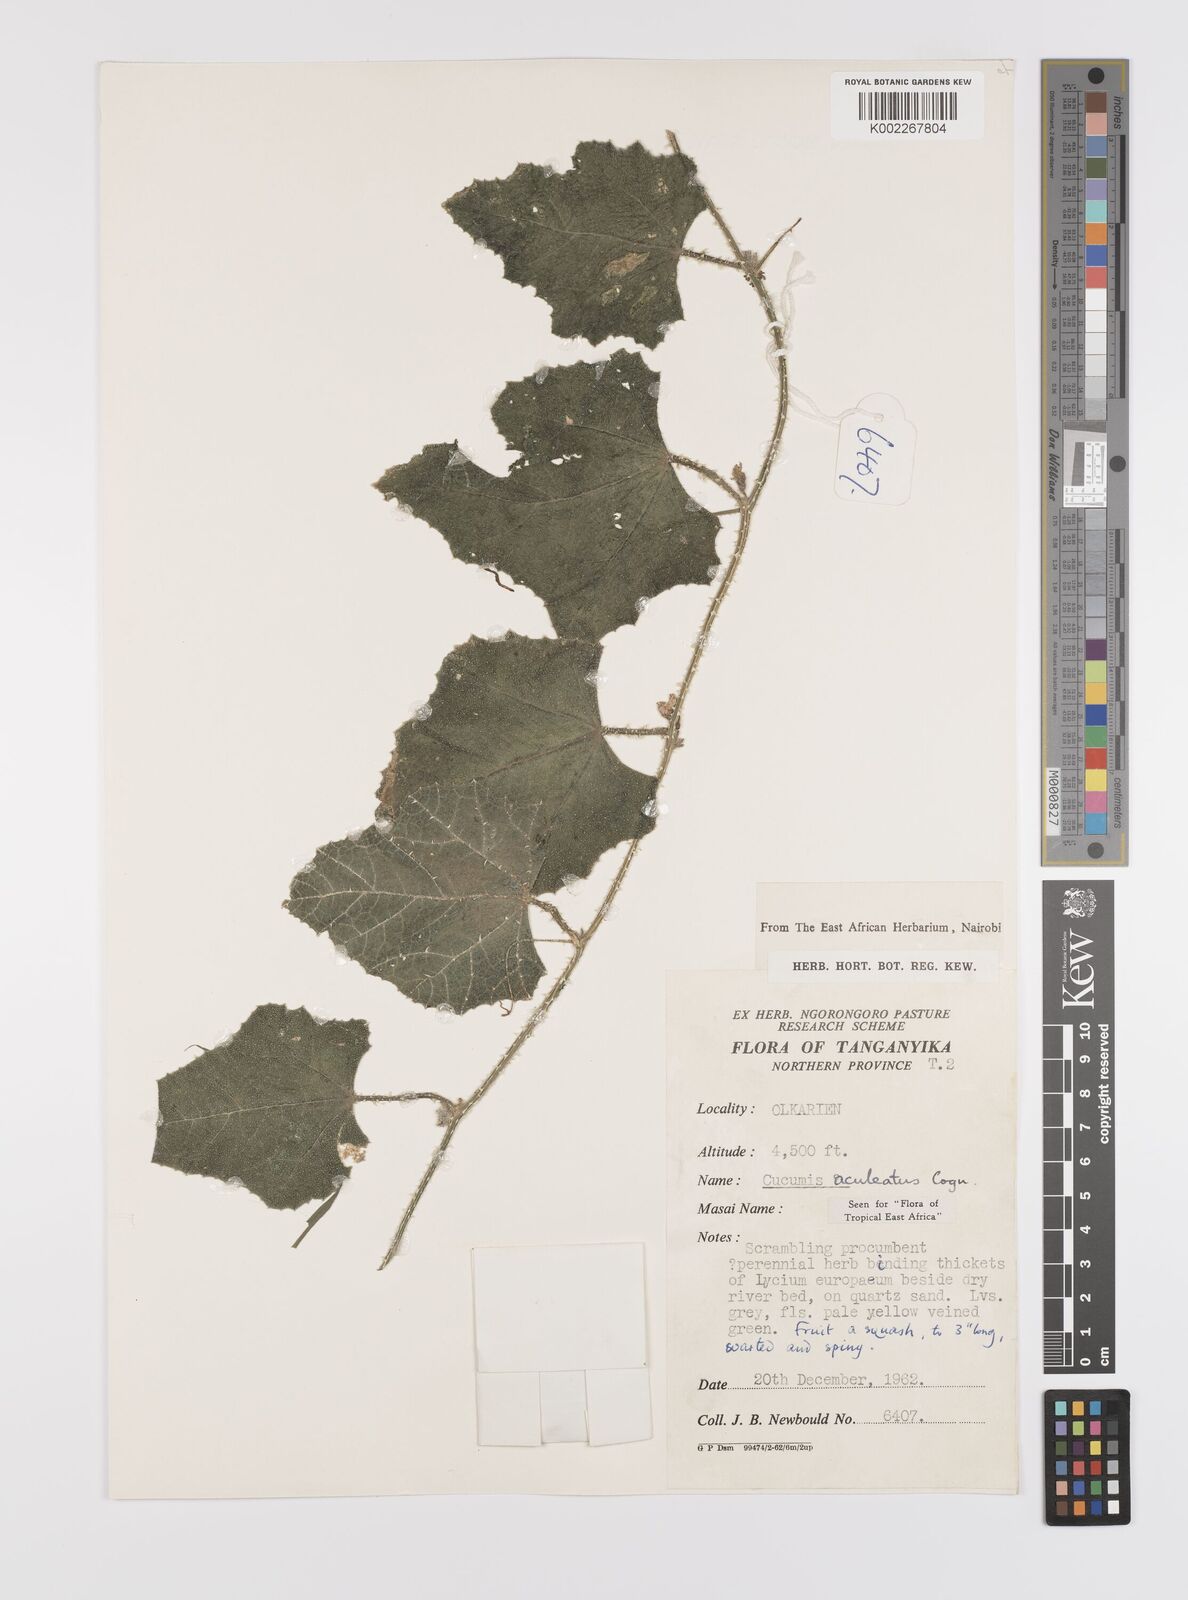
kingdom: Plantae
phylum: Tracheophyta
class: Magnoliopsida
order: Cucurbitales
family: Cucurbitaceae
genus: Cucumis
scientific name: Cucumis aculeatus
